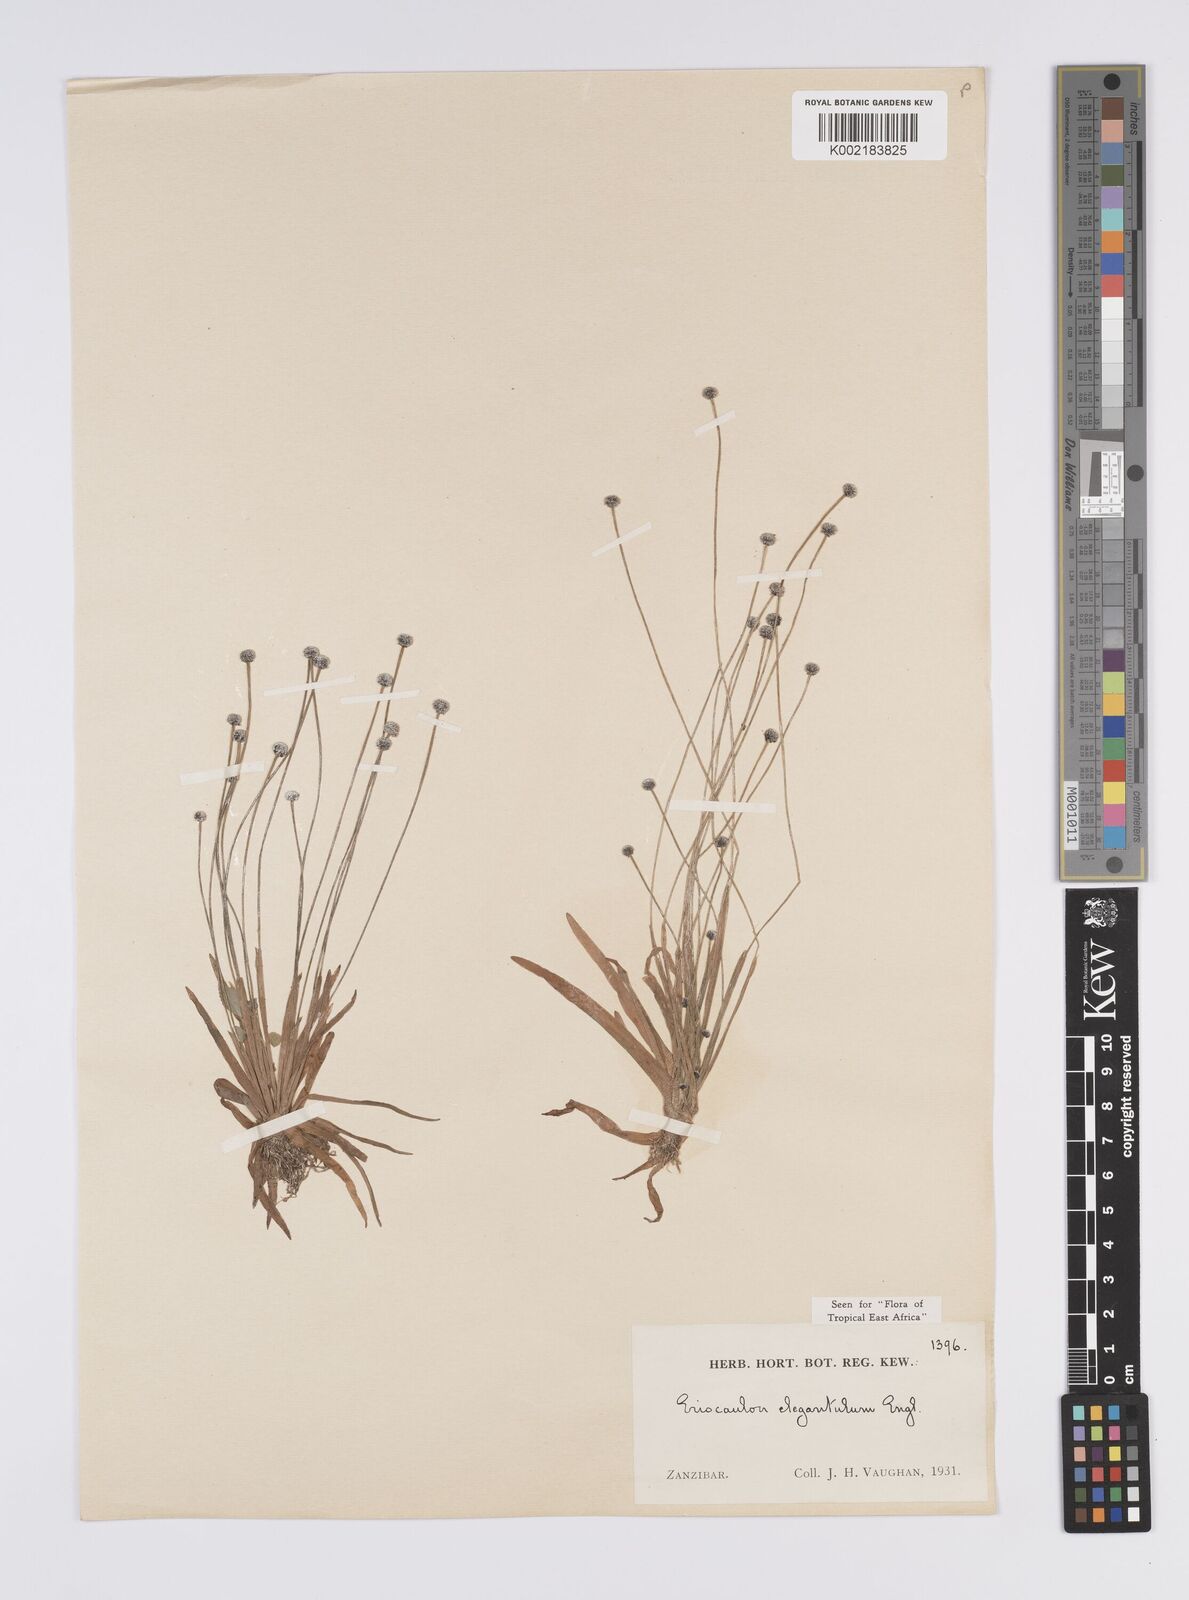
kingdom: Plantae
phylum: Tracheophyta
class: Liliopsida
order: Poales
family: Eriocaulaceae
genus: Eriocaulon
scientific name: Eriocaulon elegantulum
